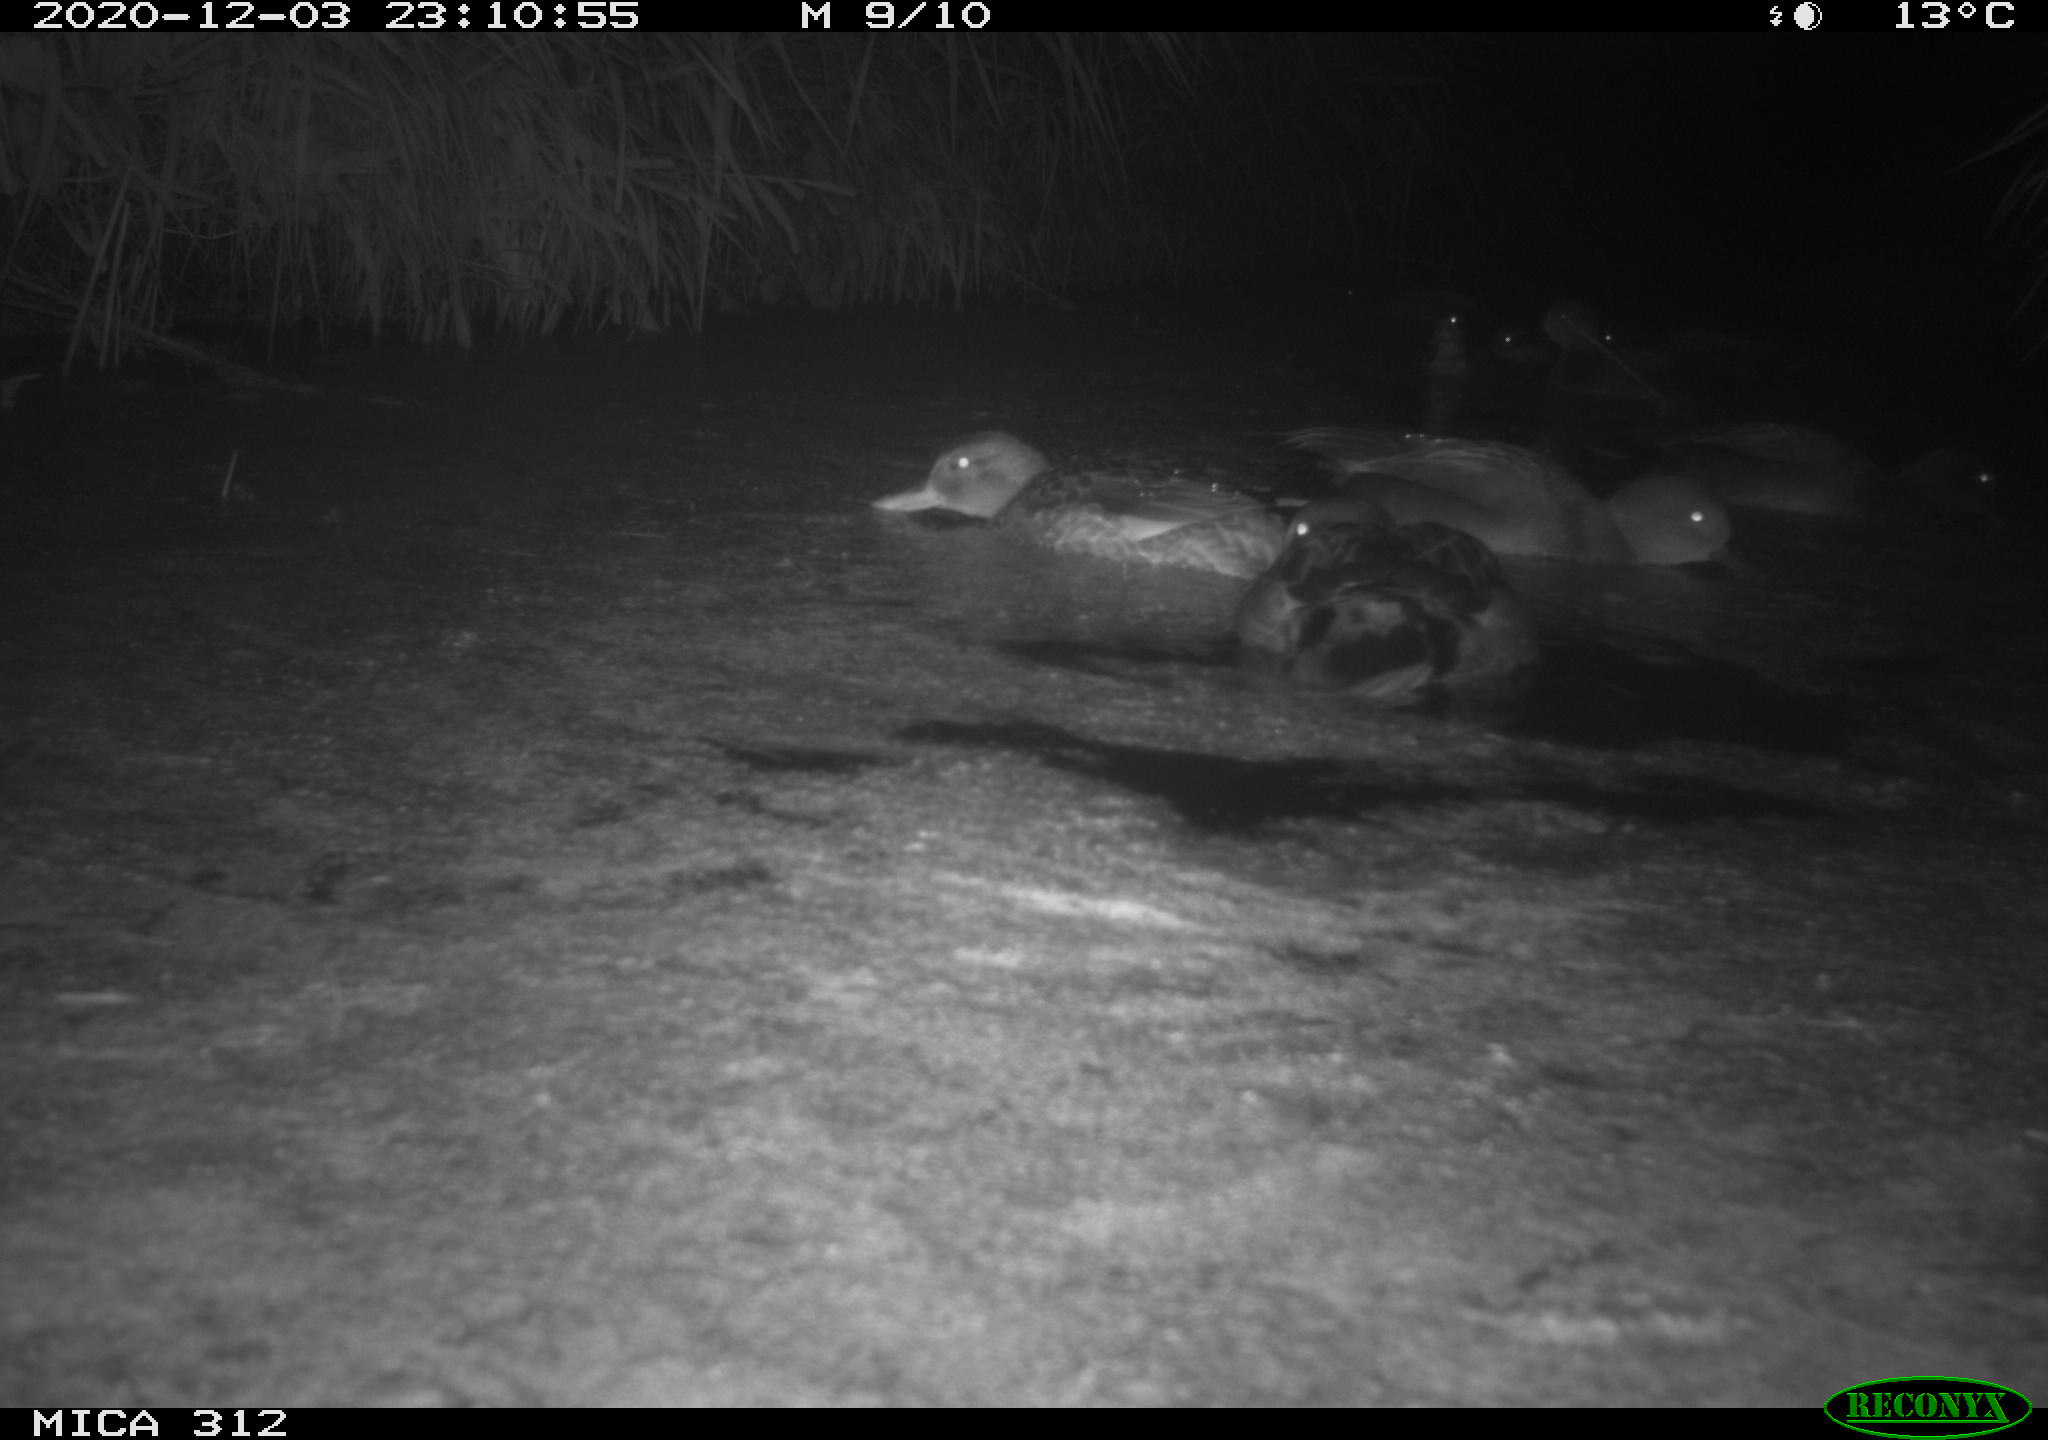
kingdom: Animalia
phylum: Chordata
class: Aves
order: Anseriformes
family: Anatidae
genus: Anas
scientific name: Anas
